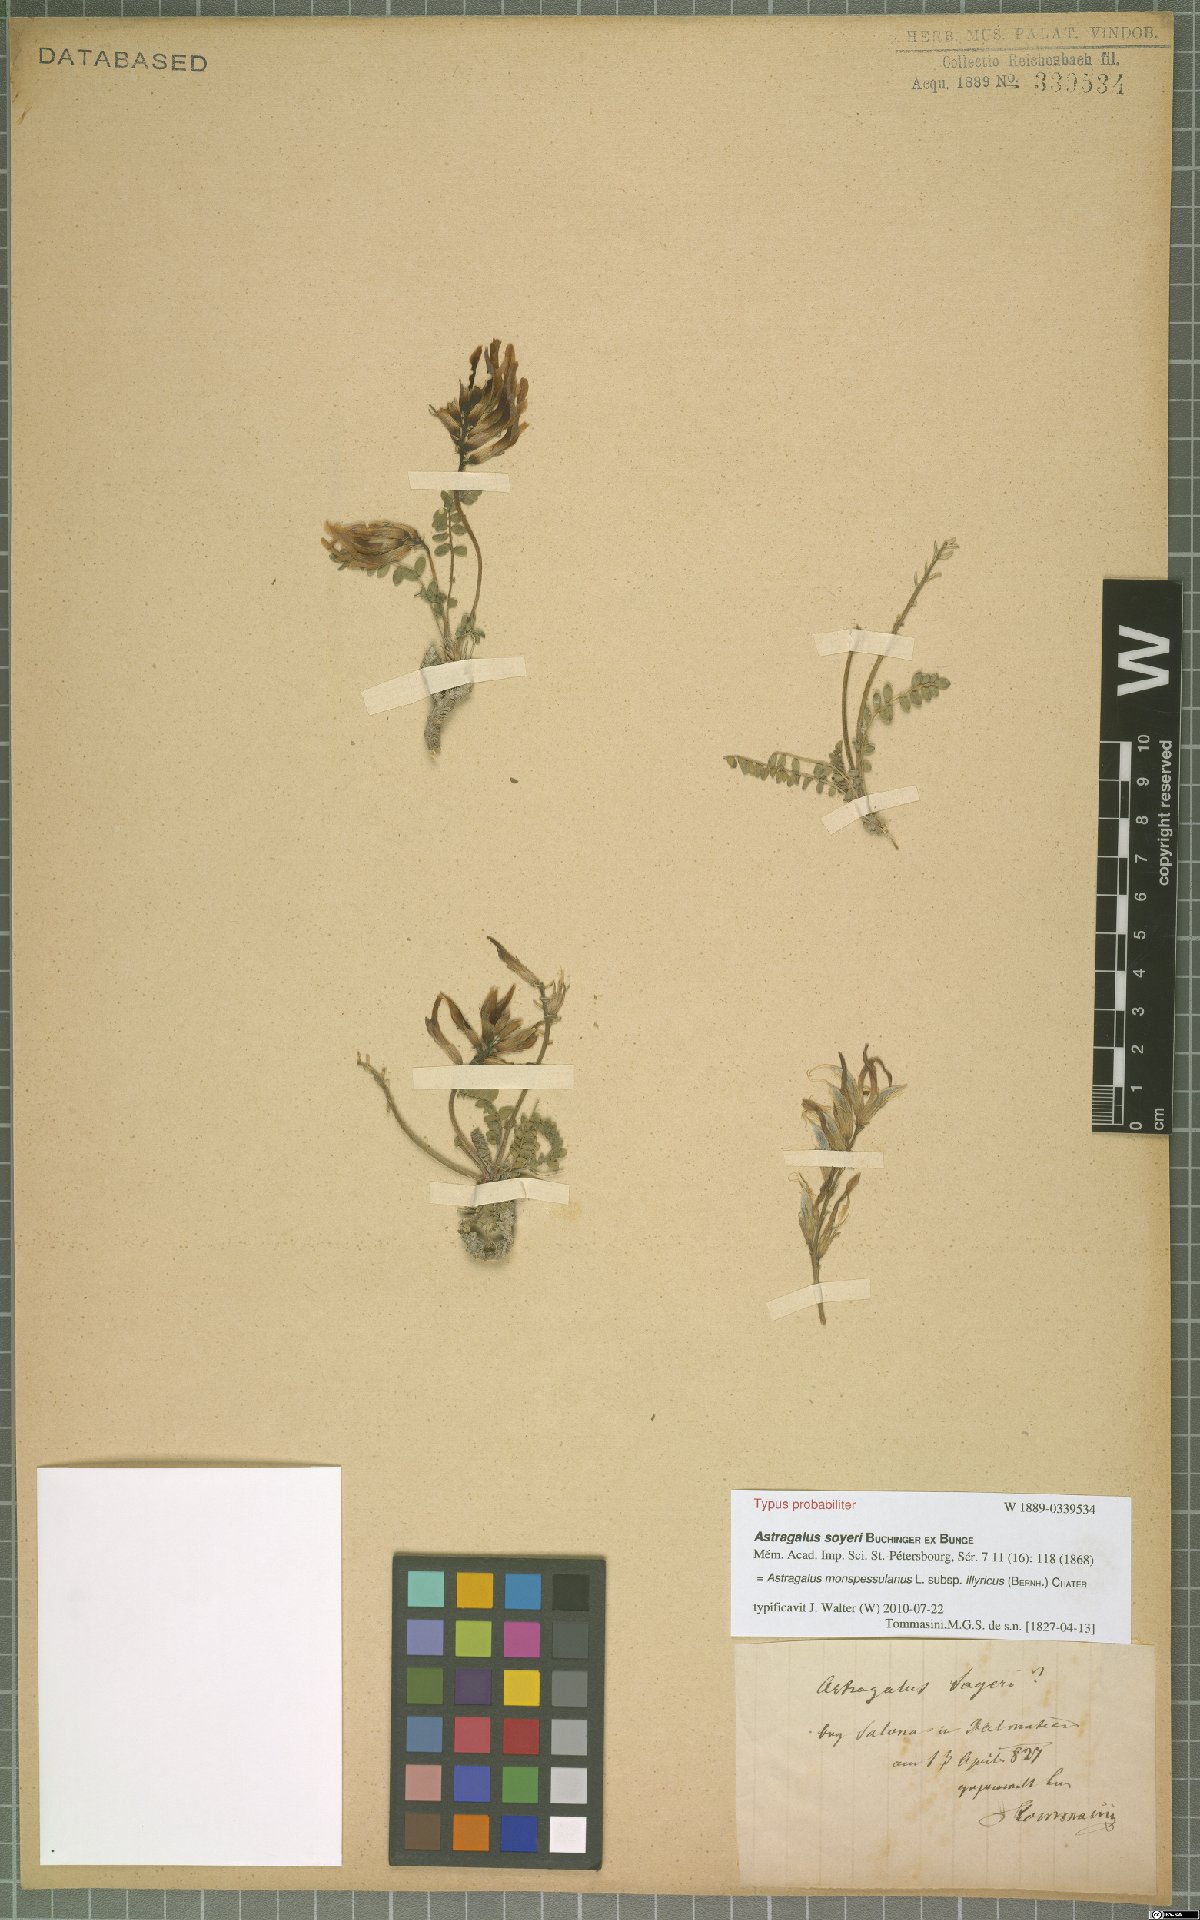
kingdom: Plantae
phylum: Tracheophyta
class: Magnoliopsida
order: Fabales
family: Fabaceae
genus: Astragalus
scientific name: Astragalus monspessulanus
